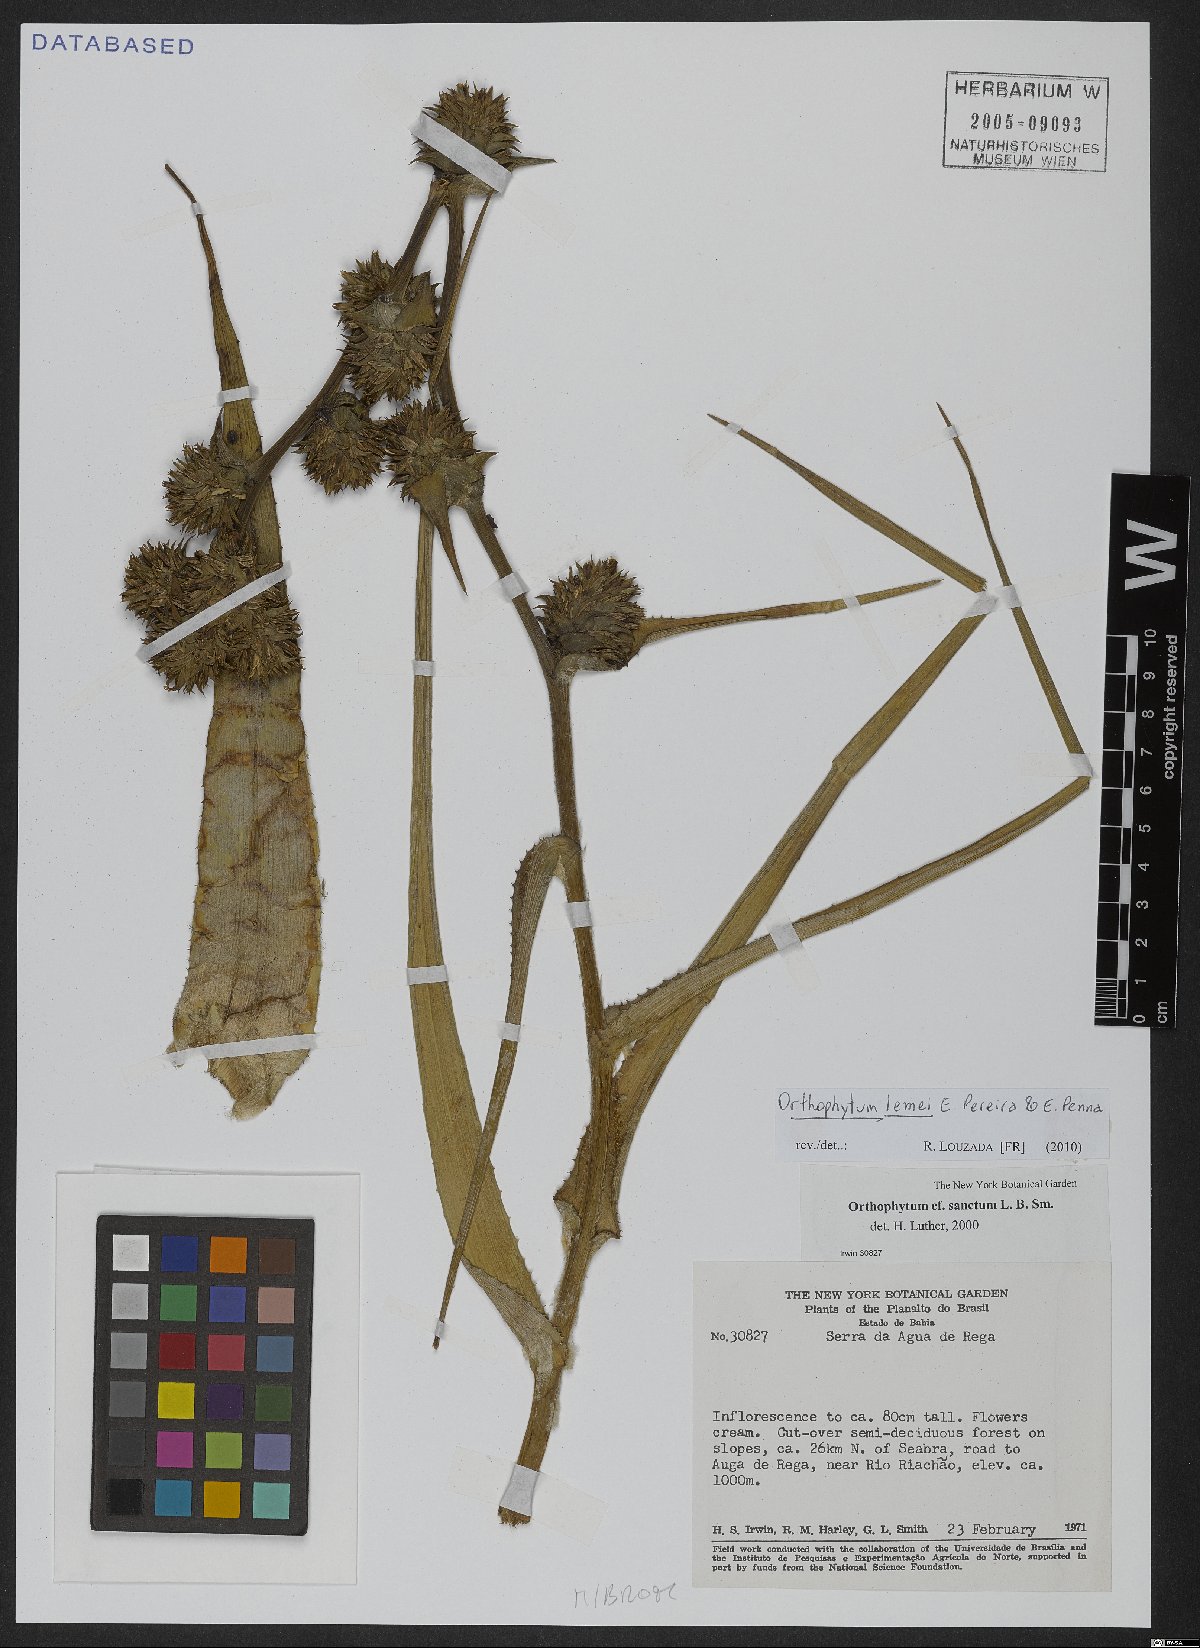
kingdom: Plantae
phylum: Tracheophyta
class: Liliopsida
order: Poales
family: Bromeliaceae
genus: Orthophytum
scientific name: Orthophytum lemei
